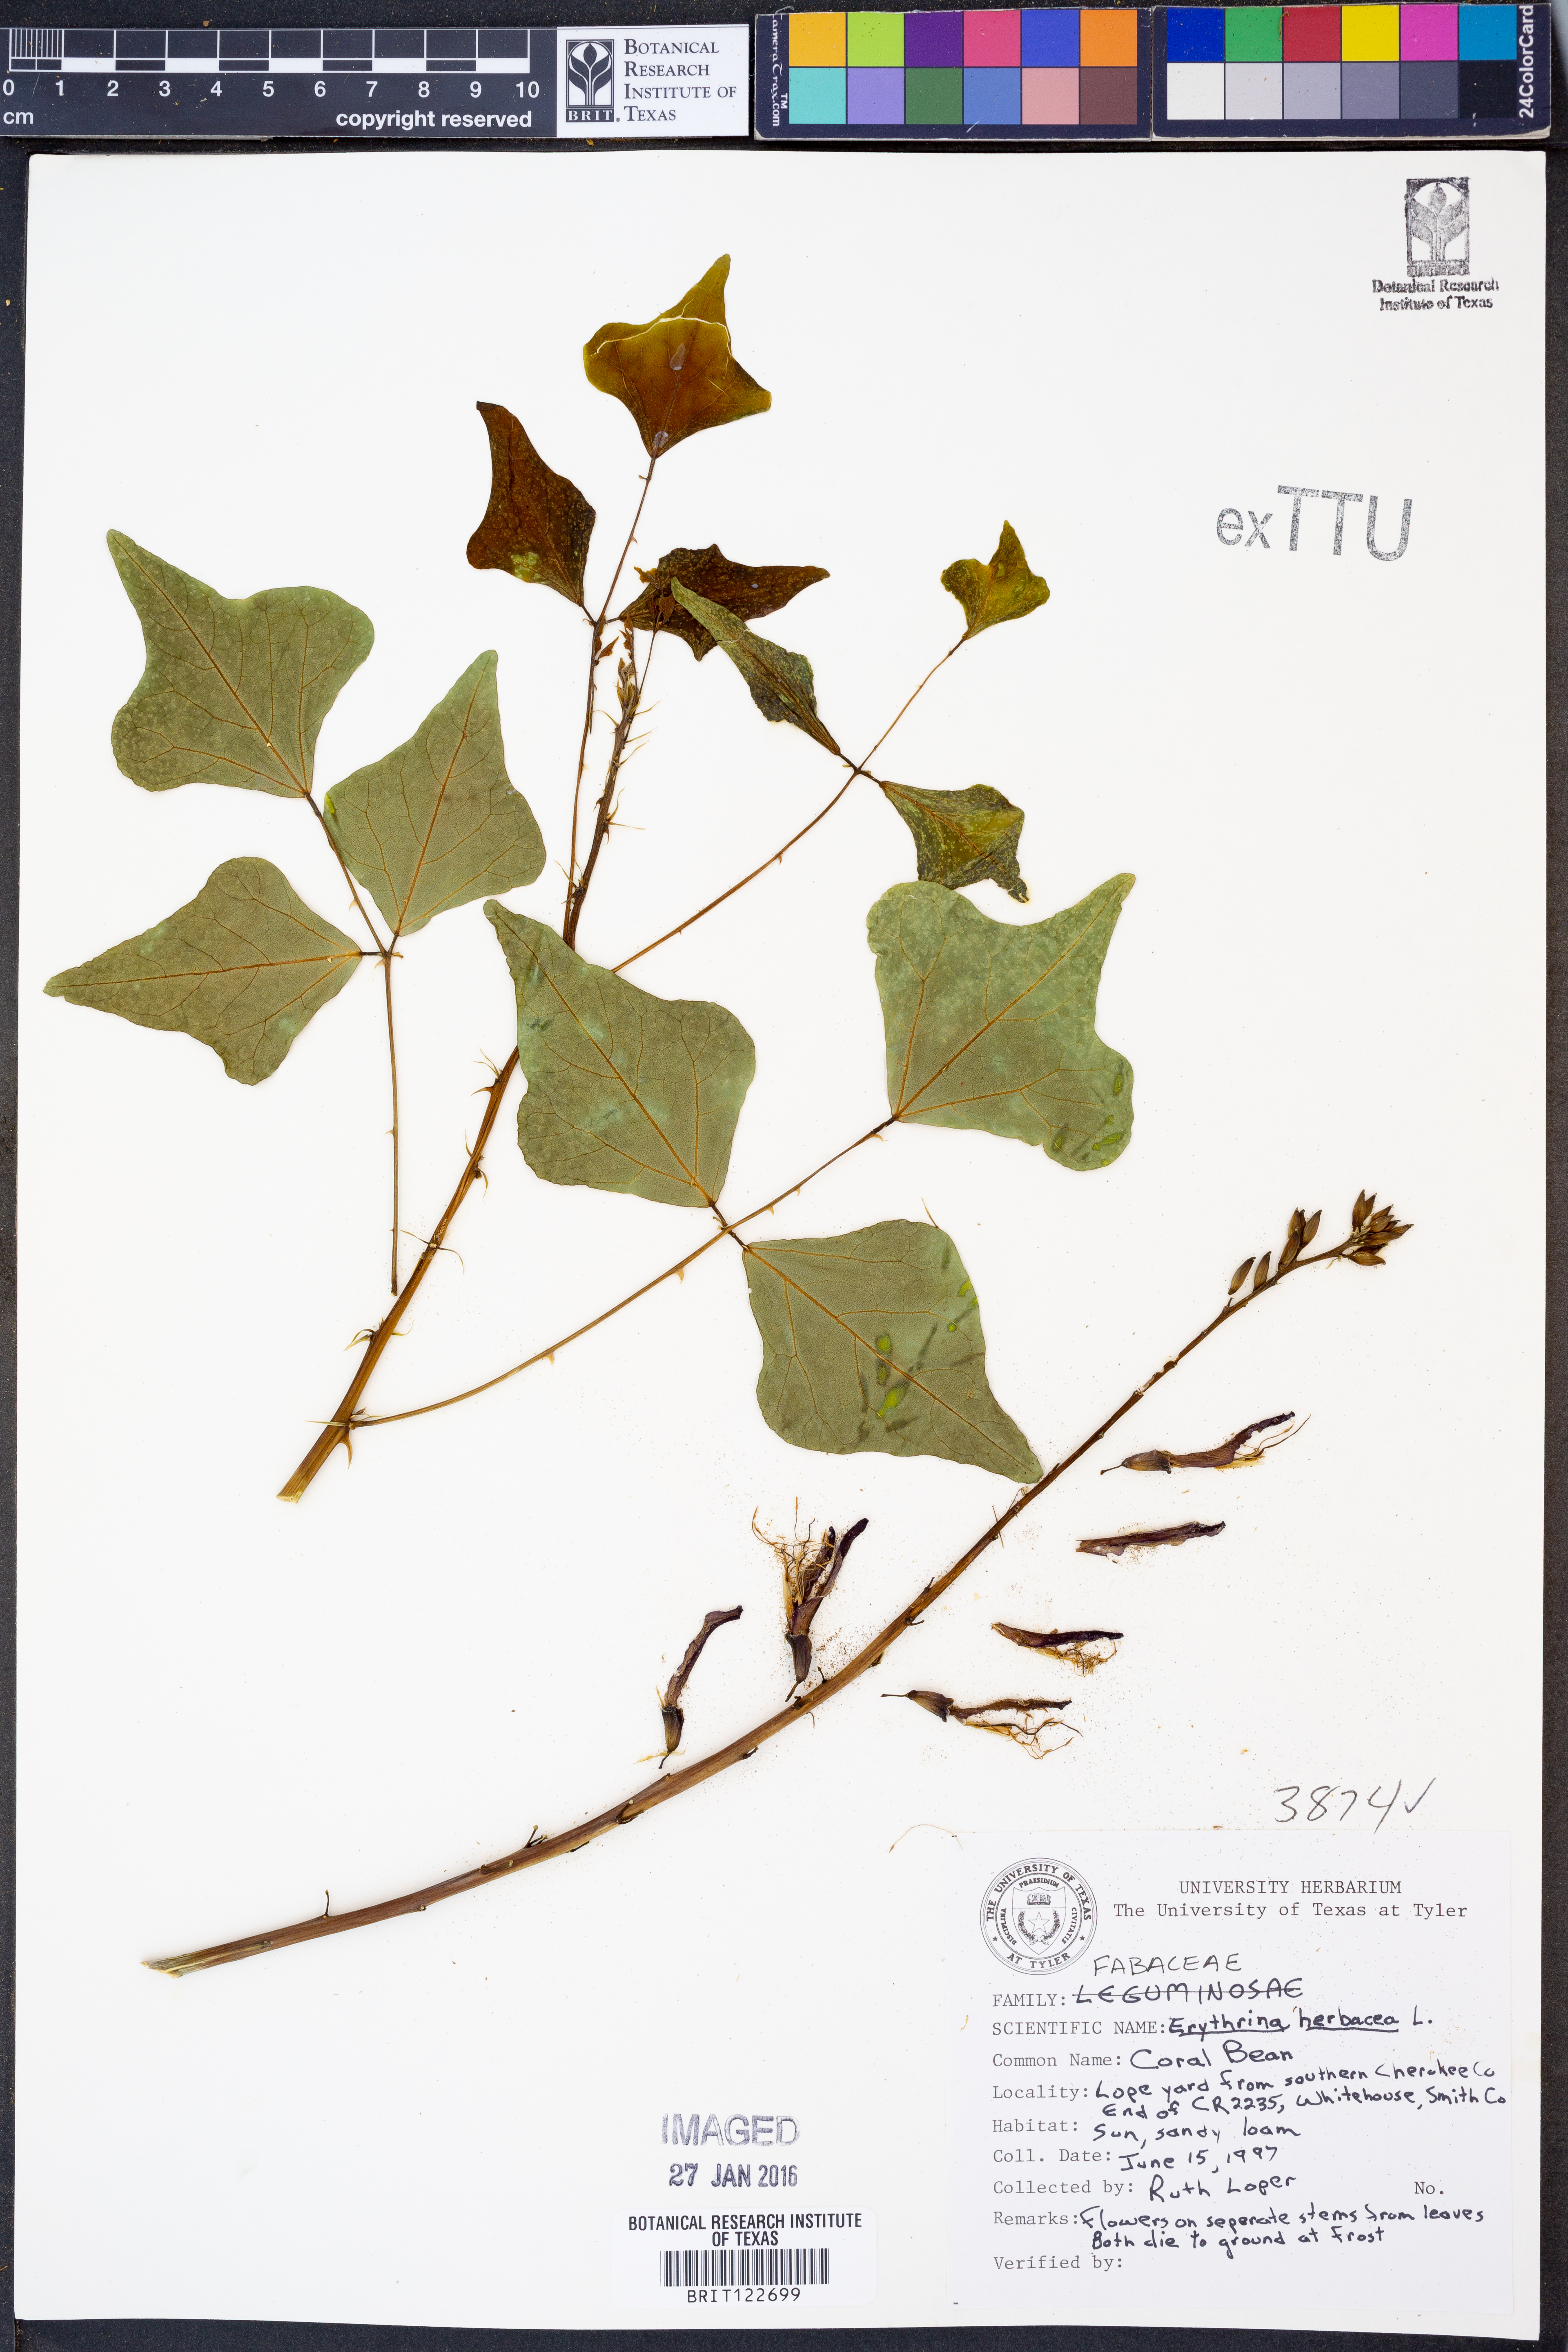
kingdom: Plantae
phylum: Tracheophyta
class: Magnoliopsida
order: Fabales
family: Fabaceae
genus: Erythrina
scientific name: Erythrina herbacea
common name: Coral-bean
